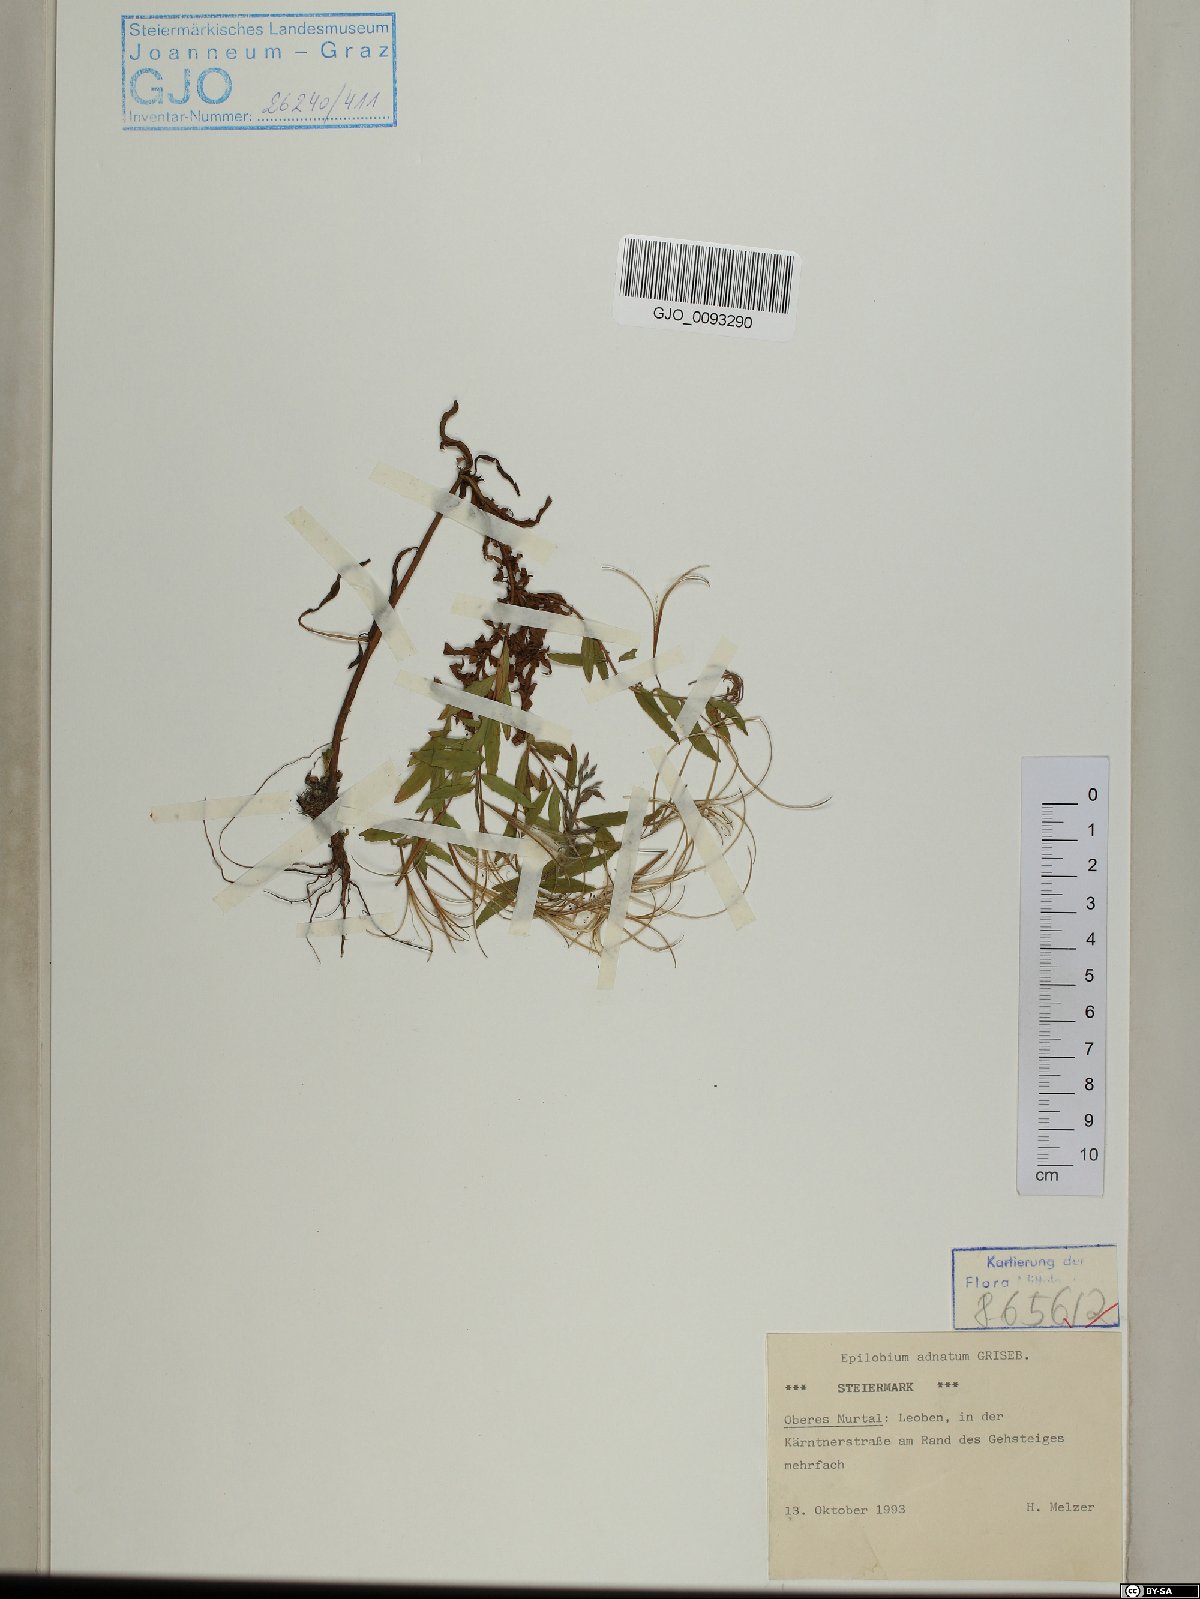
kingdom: Plantae
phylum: Tracheophyta
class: Magnoliopsida
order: Myrtales
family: Onagraceae
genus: Epilobium
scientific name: Epilobium tetragonum
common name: Square-stemmed willowherb
